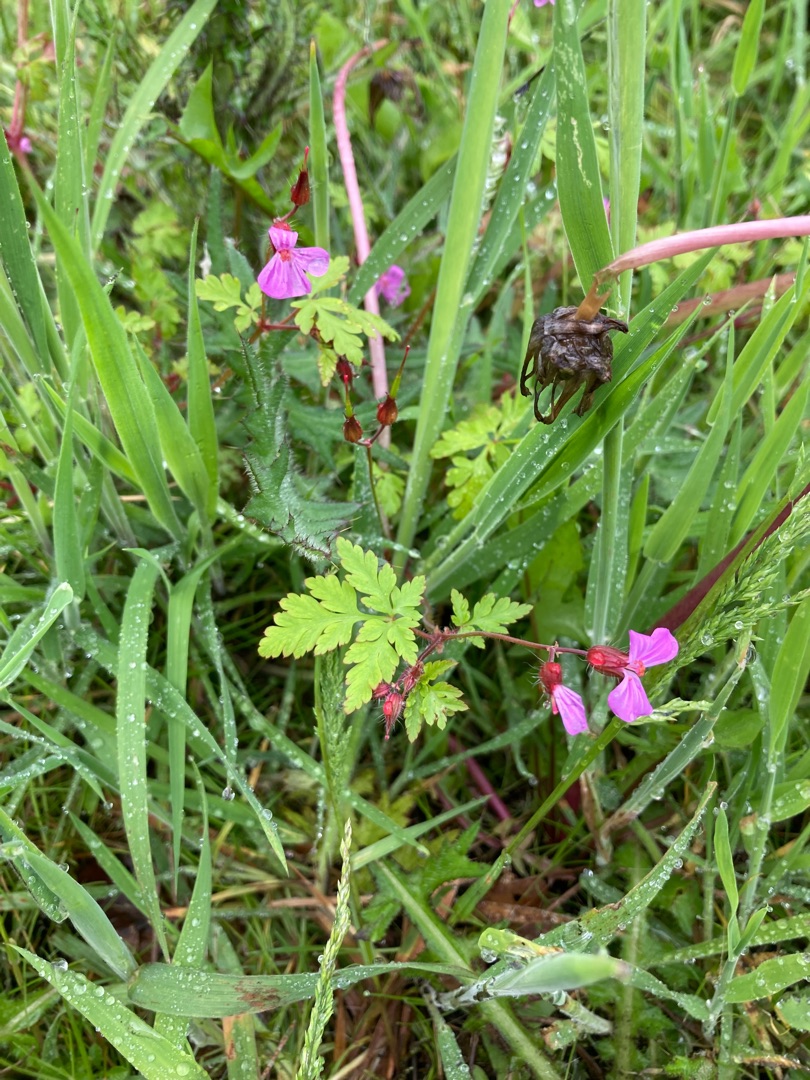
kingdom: Plantae
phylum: Tracheophyta
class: Magnoliopsida
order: Geraniales
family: Geraniaceae
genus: Geranium
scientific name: Geranium robertianum
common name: Stinkende storkenæb
